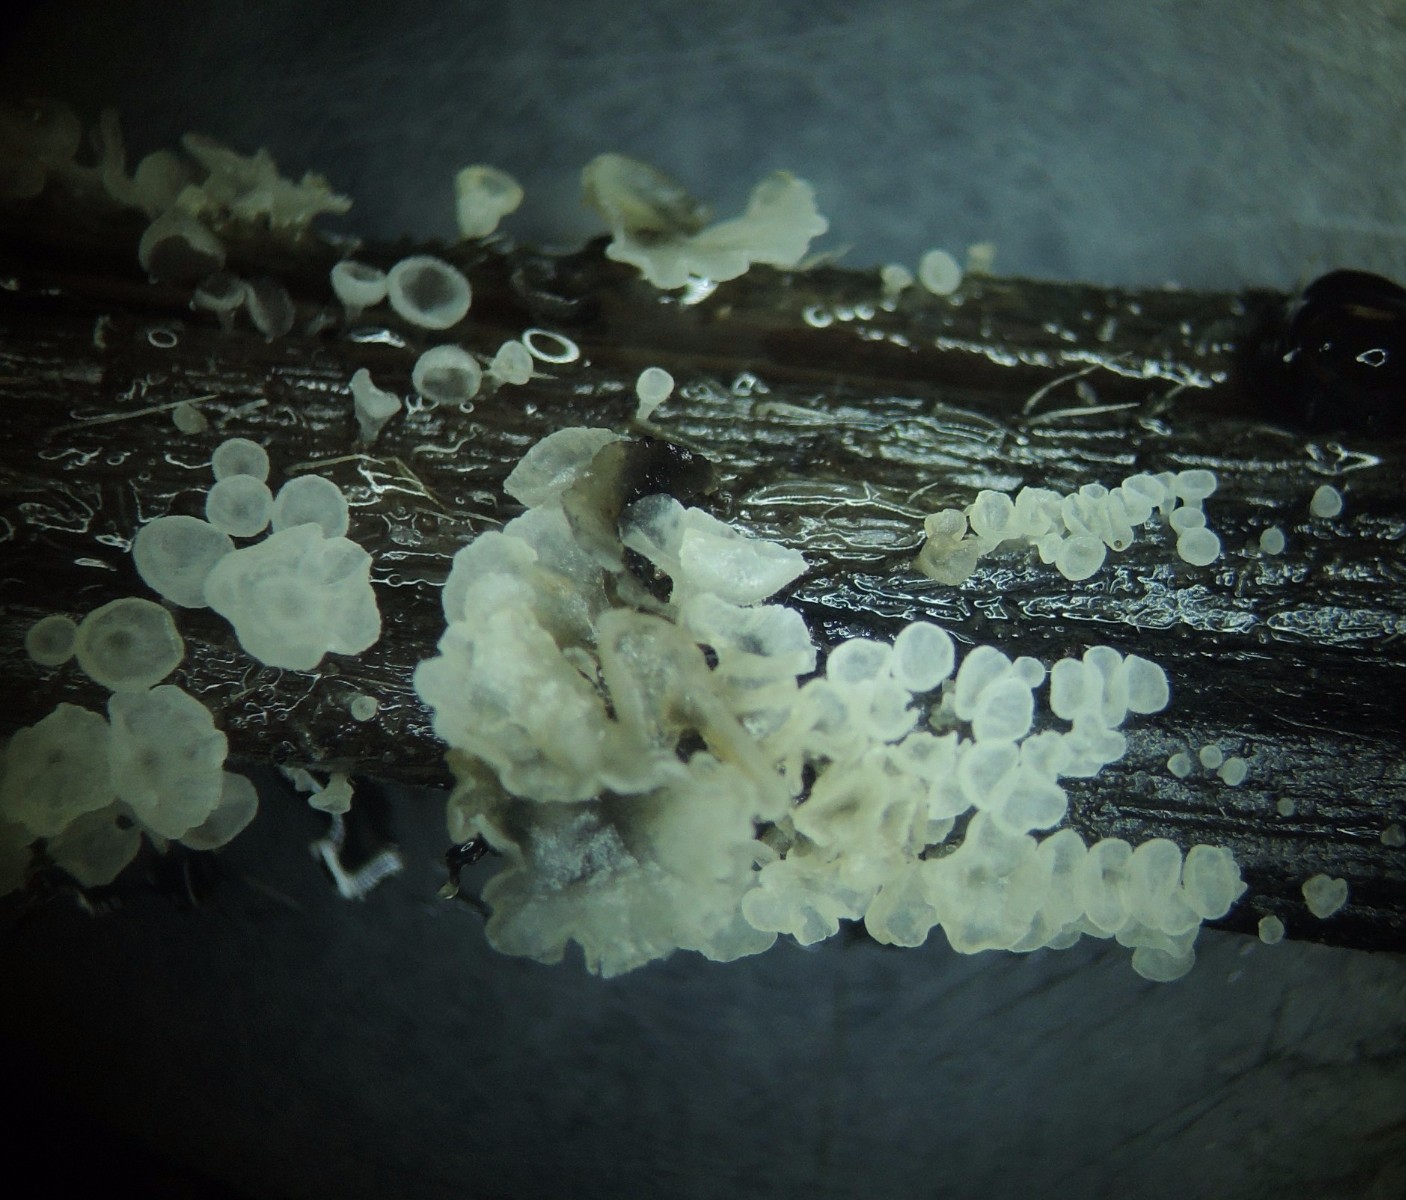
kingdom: Fungi
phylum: Basidiomycota
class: Agaricomycetes
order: Agaricales
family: Marasmiaceae
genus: Calyptella
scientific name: Calyptella capula
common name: hvidlig nældehue
